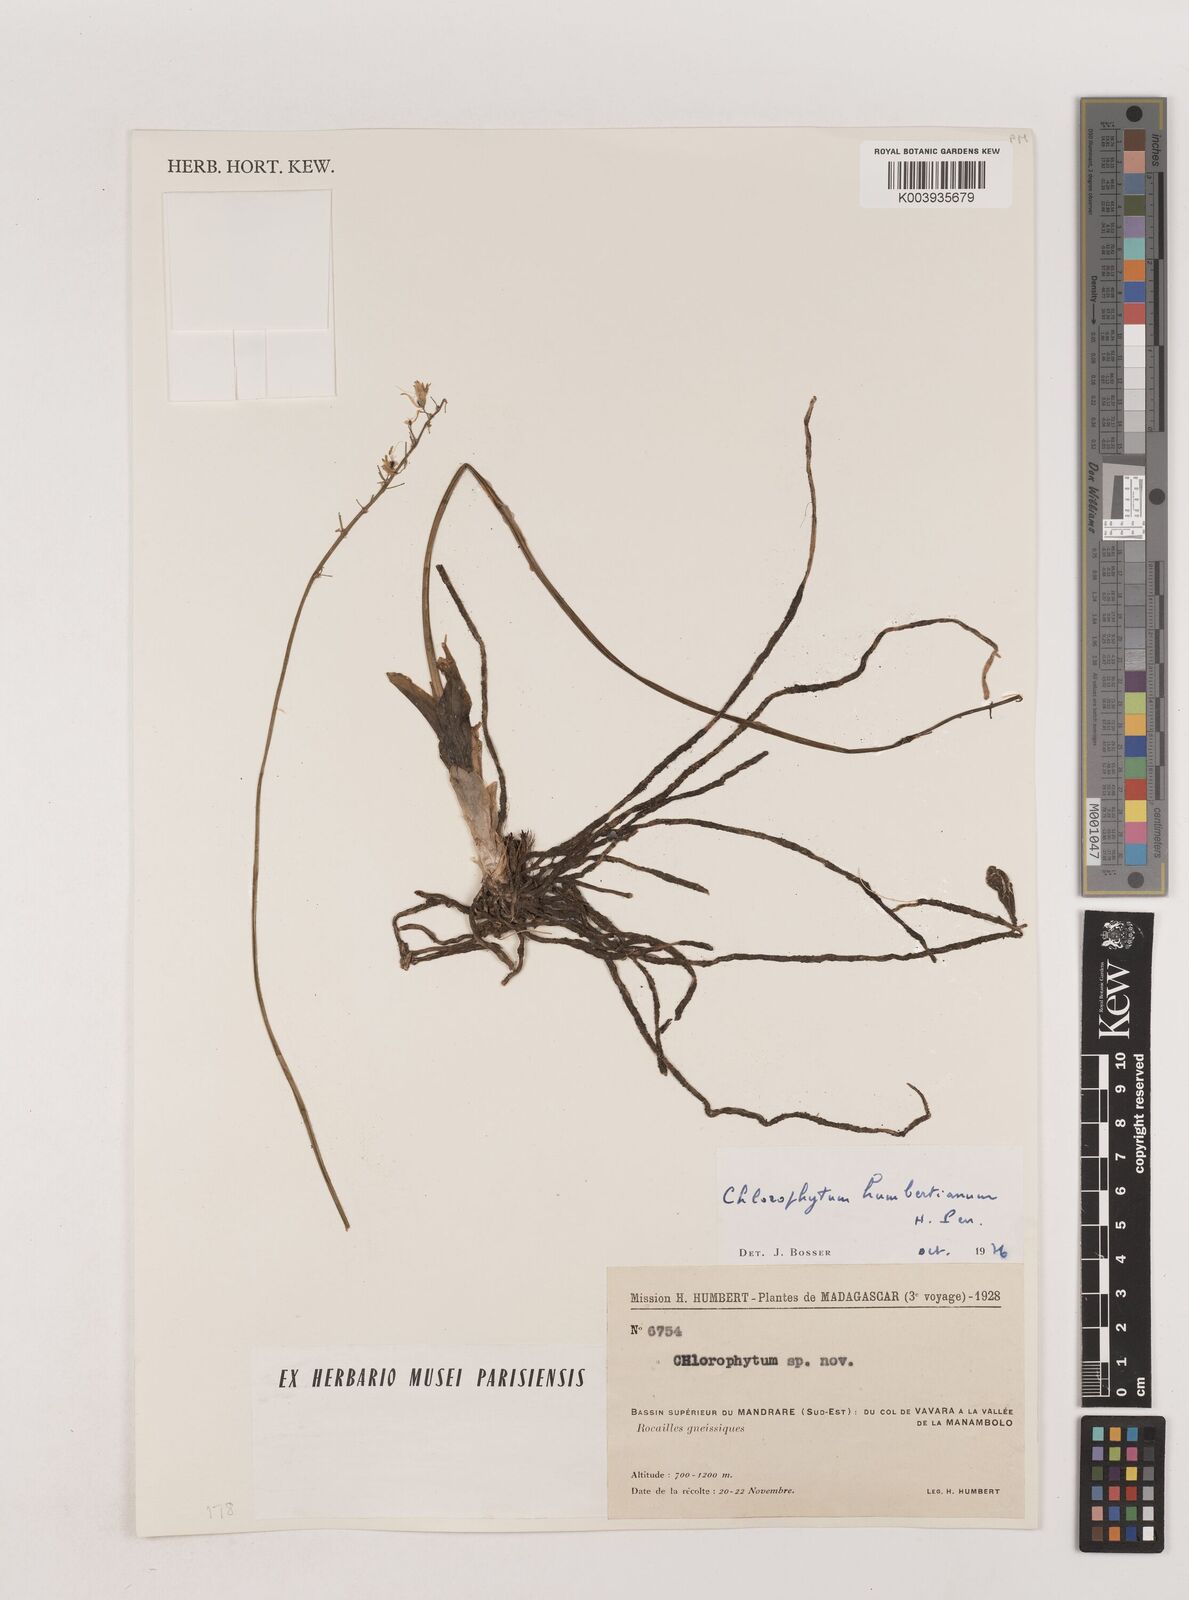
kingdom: Plantae
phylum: Tracheophyta
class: Liliopsida
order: Asparagales
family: Asparagaceae
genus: Chlorophytum
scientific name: Chlorophytum humbertianum
